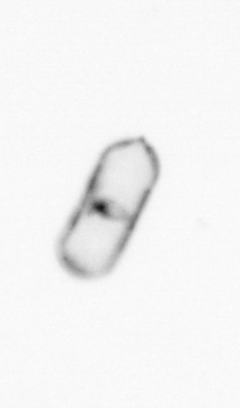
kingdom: Chromista
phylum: Ochrophyta
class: Bacillariophyceae
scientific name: Bacillariophyceae
